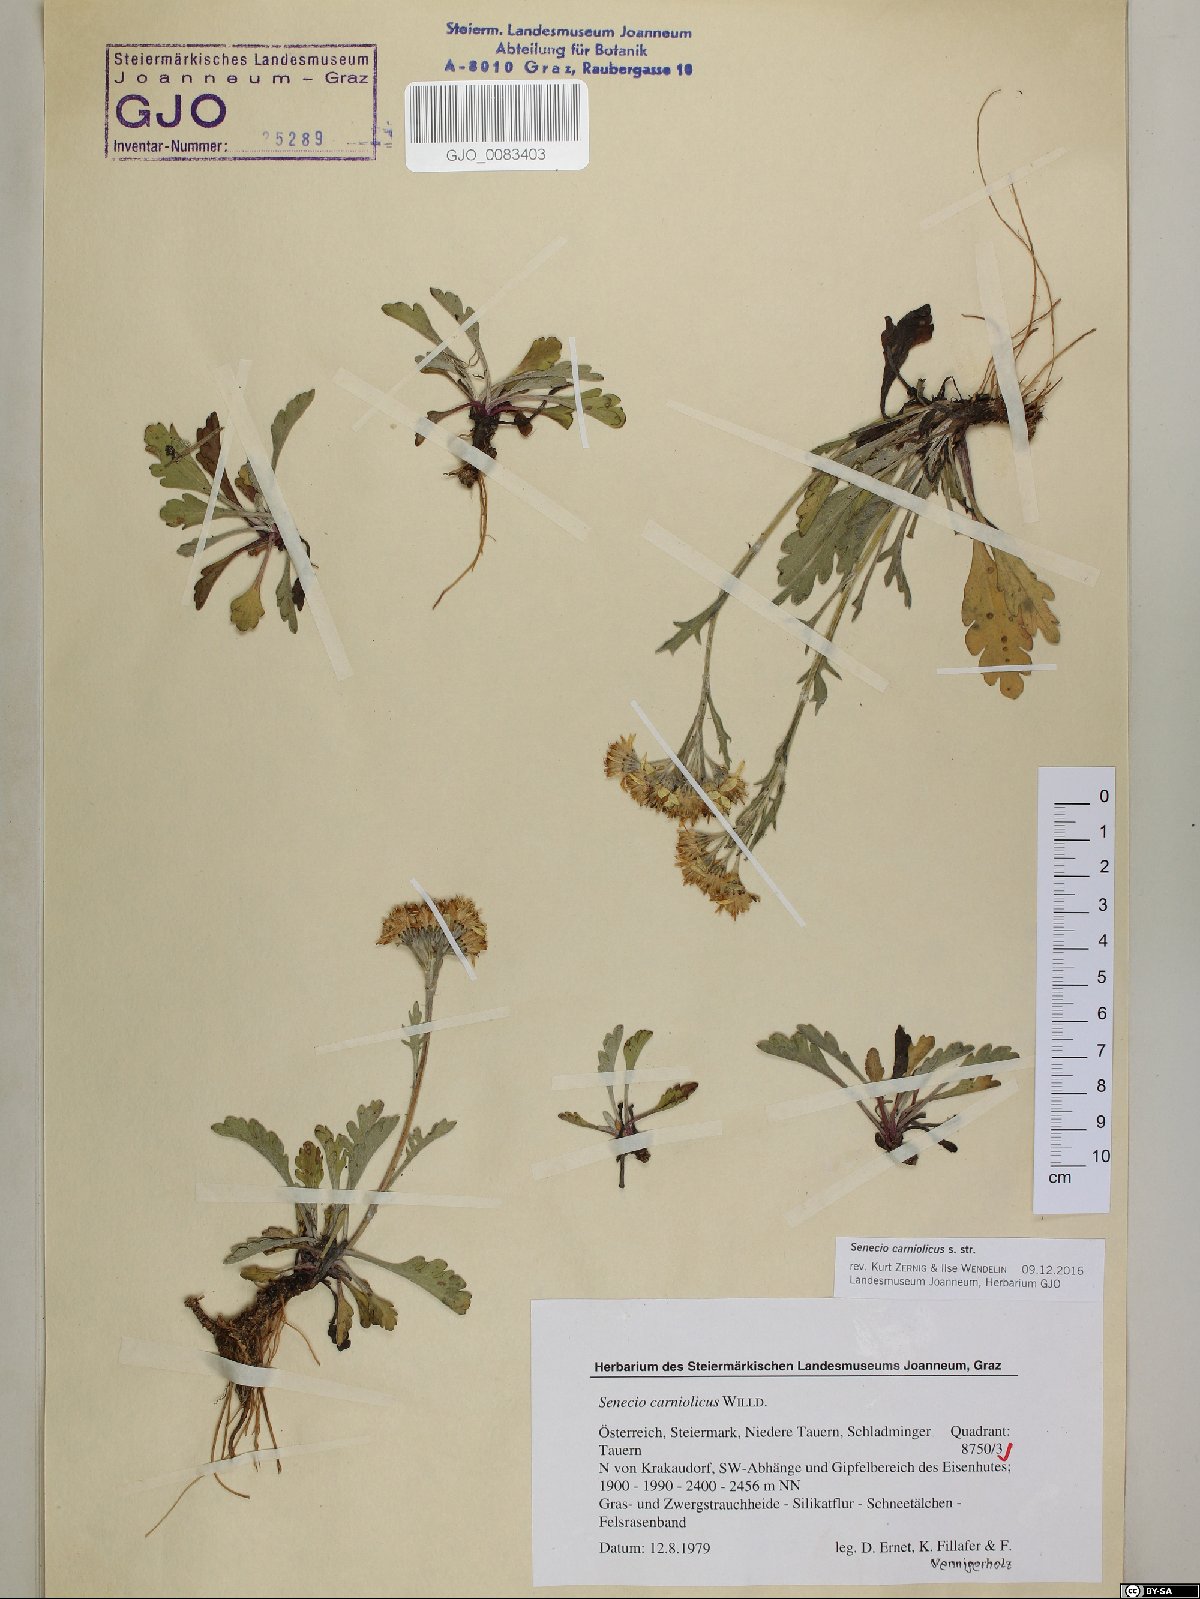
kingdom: Plantae
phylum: Tracheophyta
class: Magnoliopsida
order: Asterales
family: Asteraceae
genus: Jacobaea
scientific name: Jacobaea carniolica
